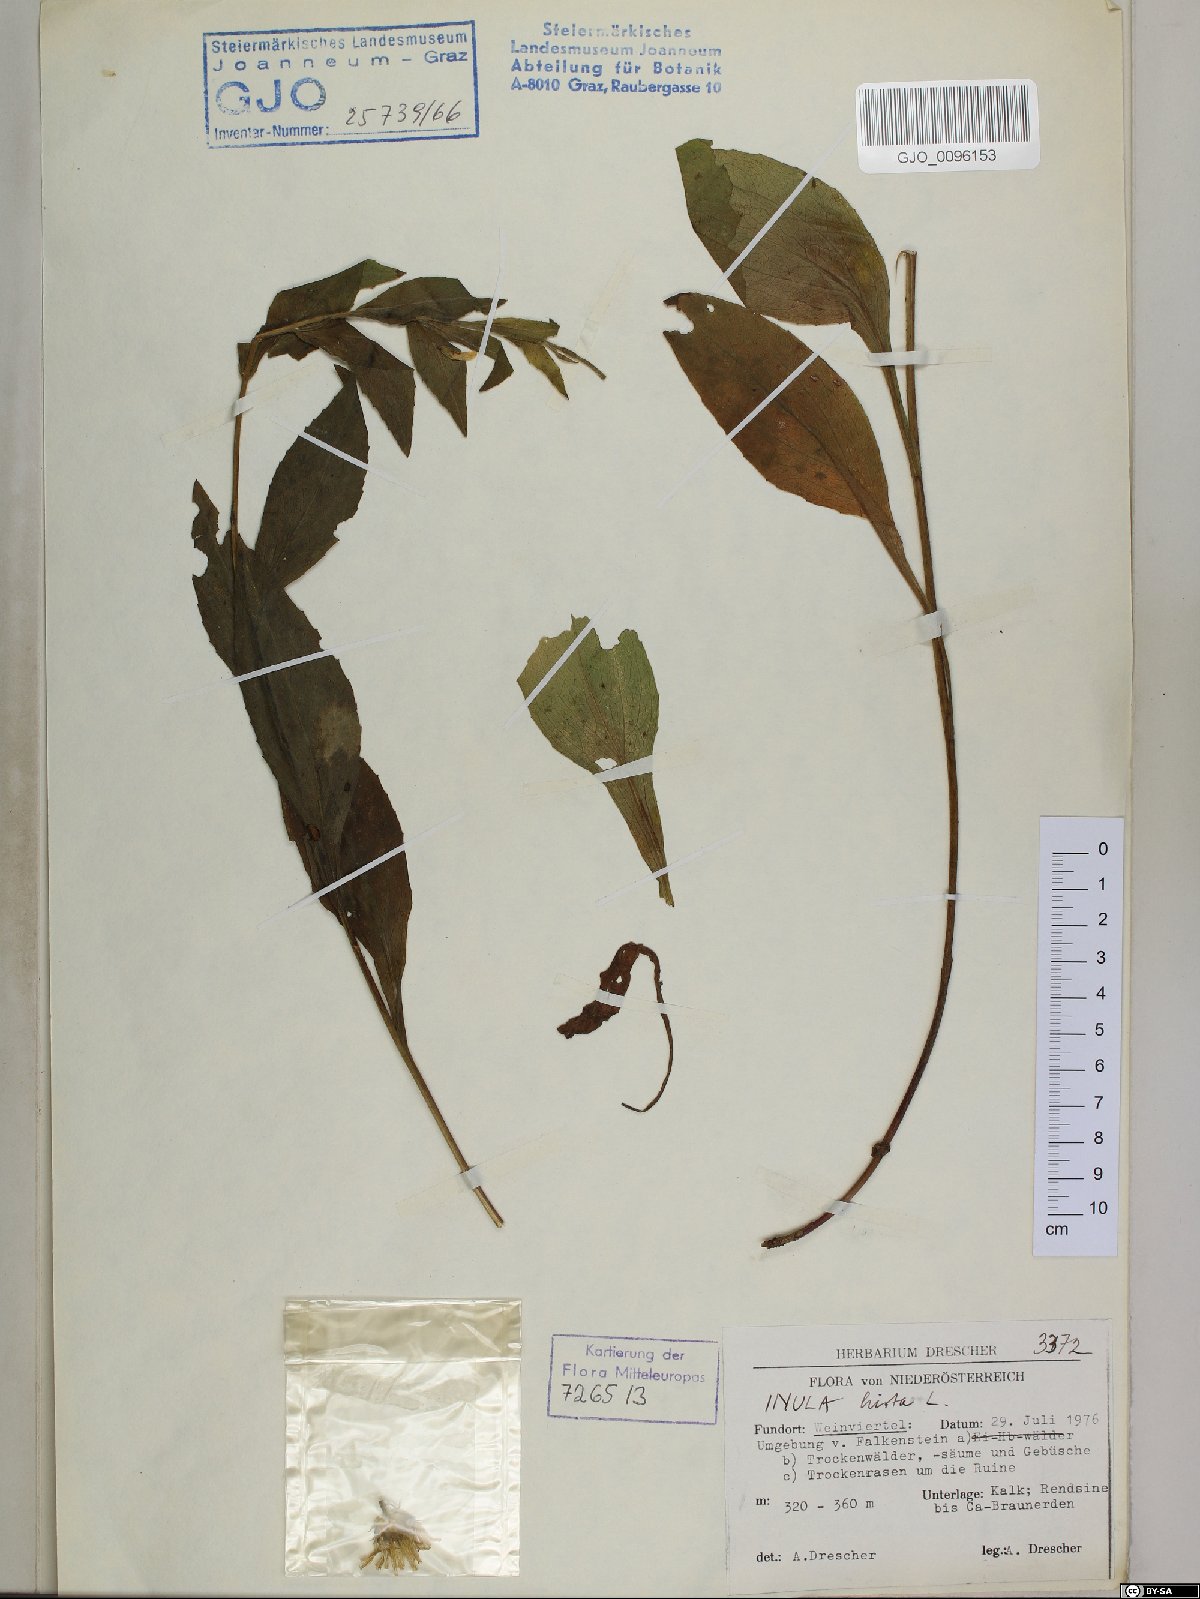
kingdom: Plantae
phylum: Tracheophyta
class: Magnoliopsida
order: Asterales
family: Asteraceae
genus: Pentanema
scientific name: Pentanema hirtum
